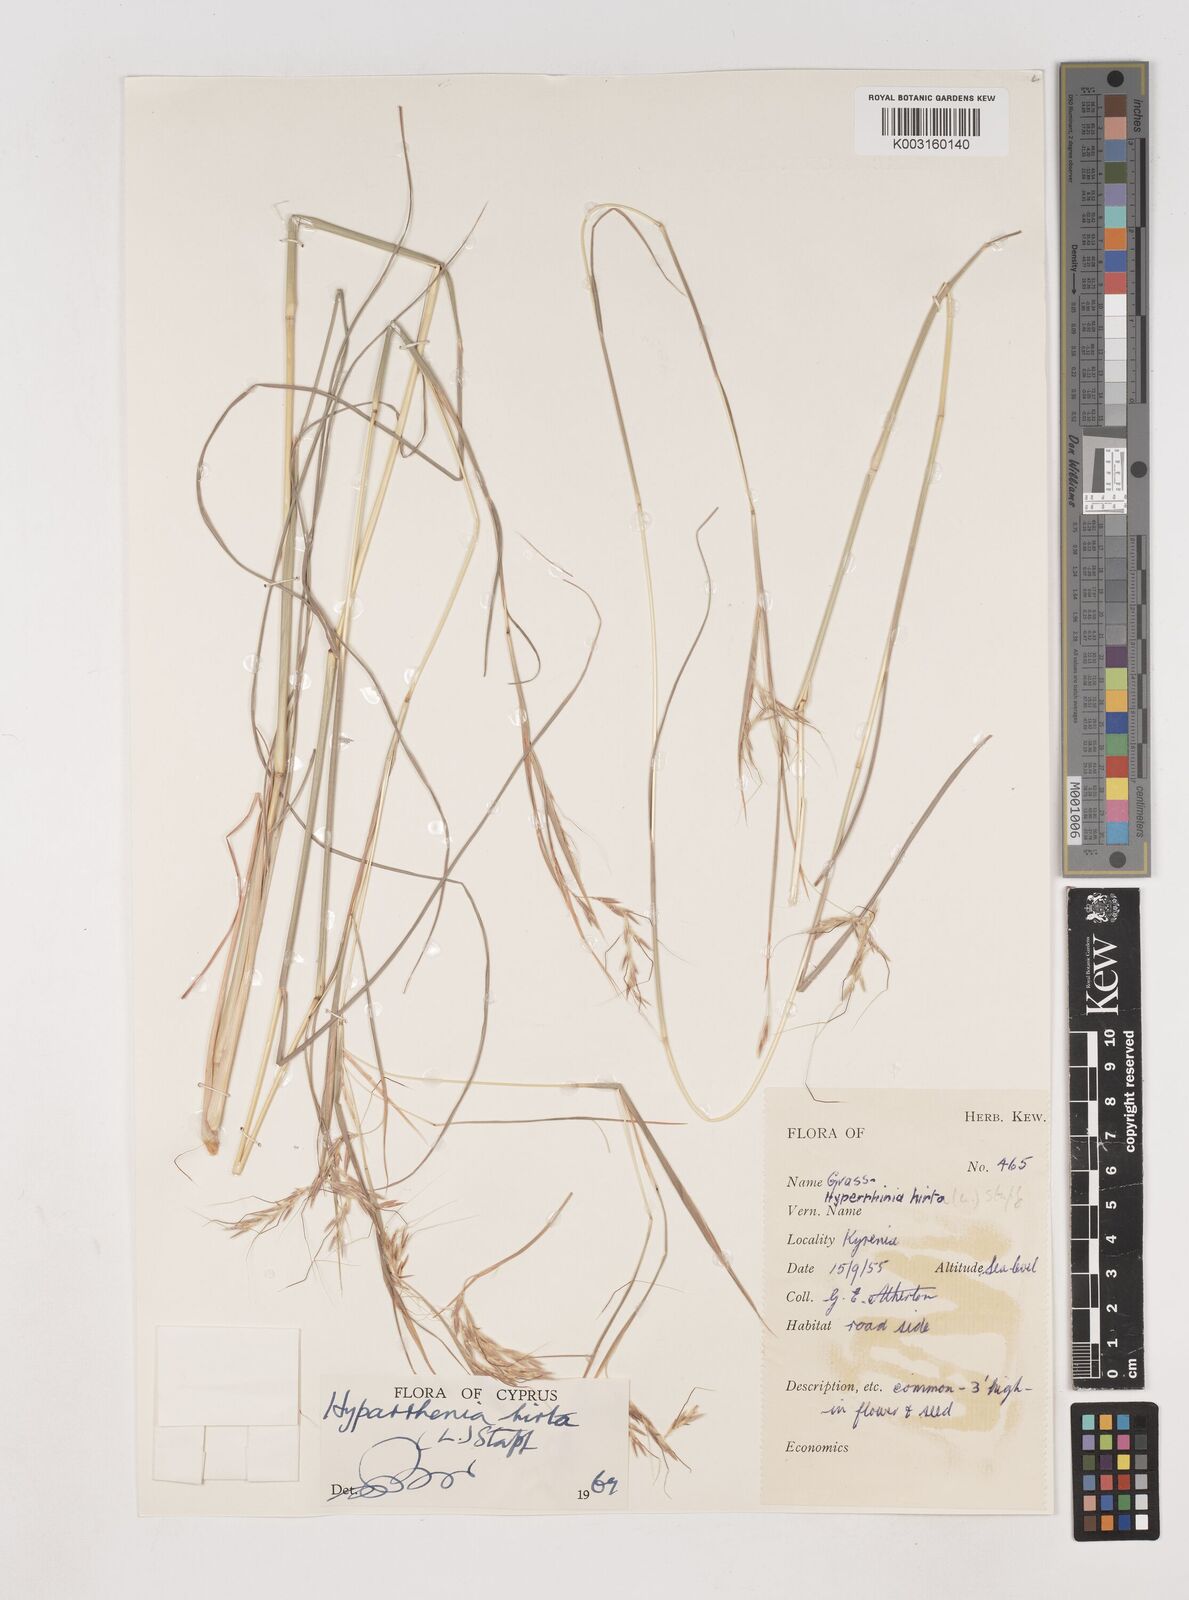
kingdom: Plantae
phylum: Tracheophyta
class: Liliopsida
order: Poales
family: Poaceae
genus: Hyparrhenia
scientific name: Hyparrhenia hirta
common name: Thatching grass
